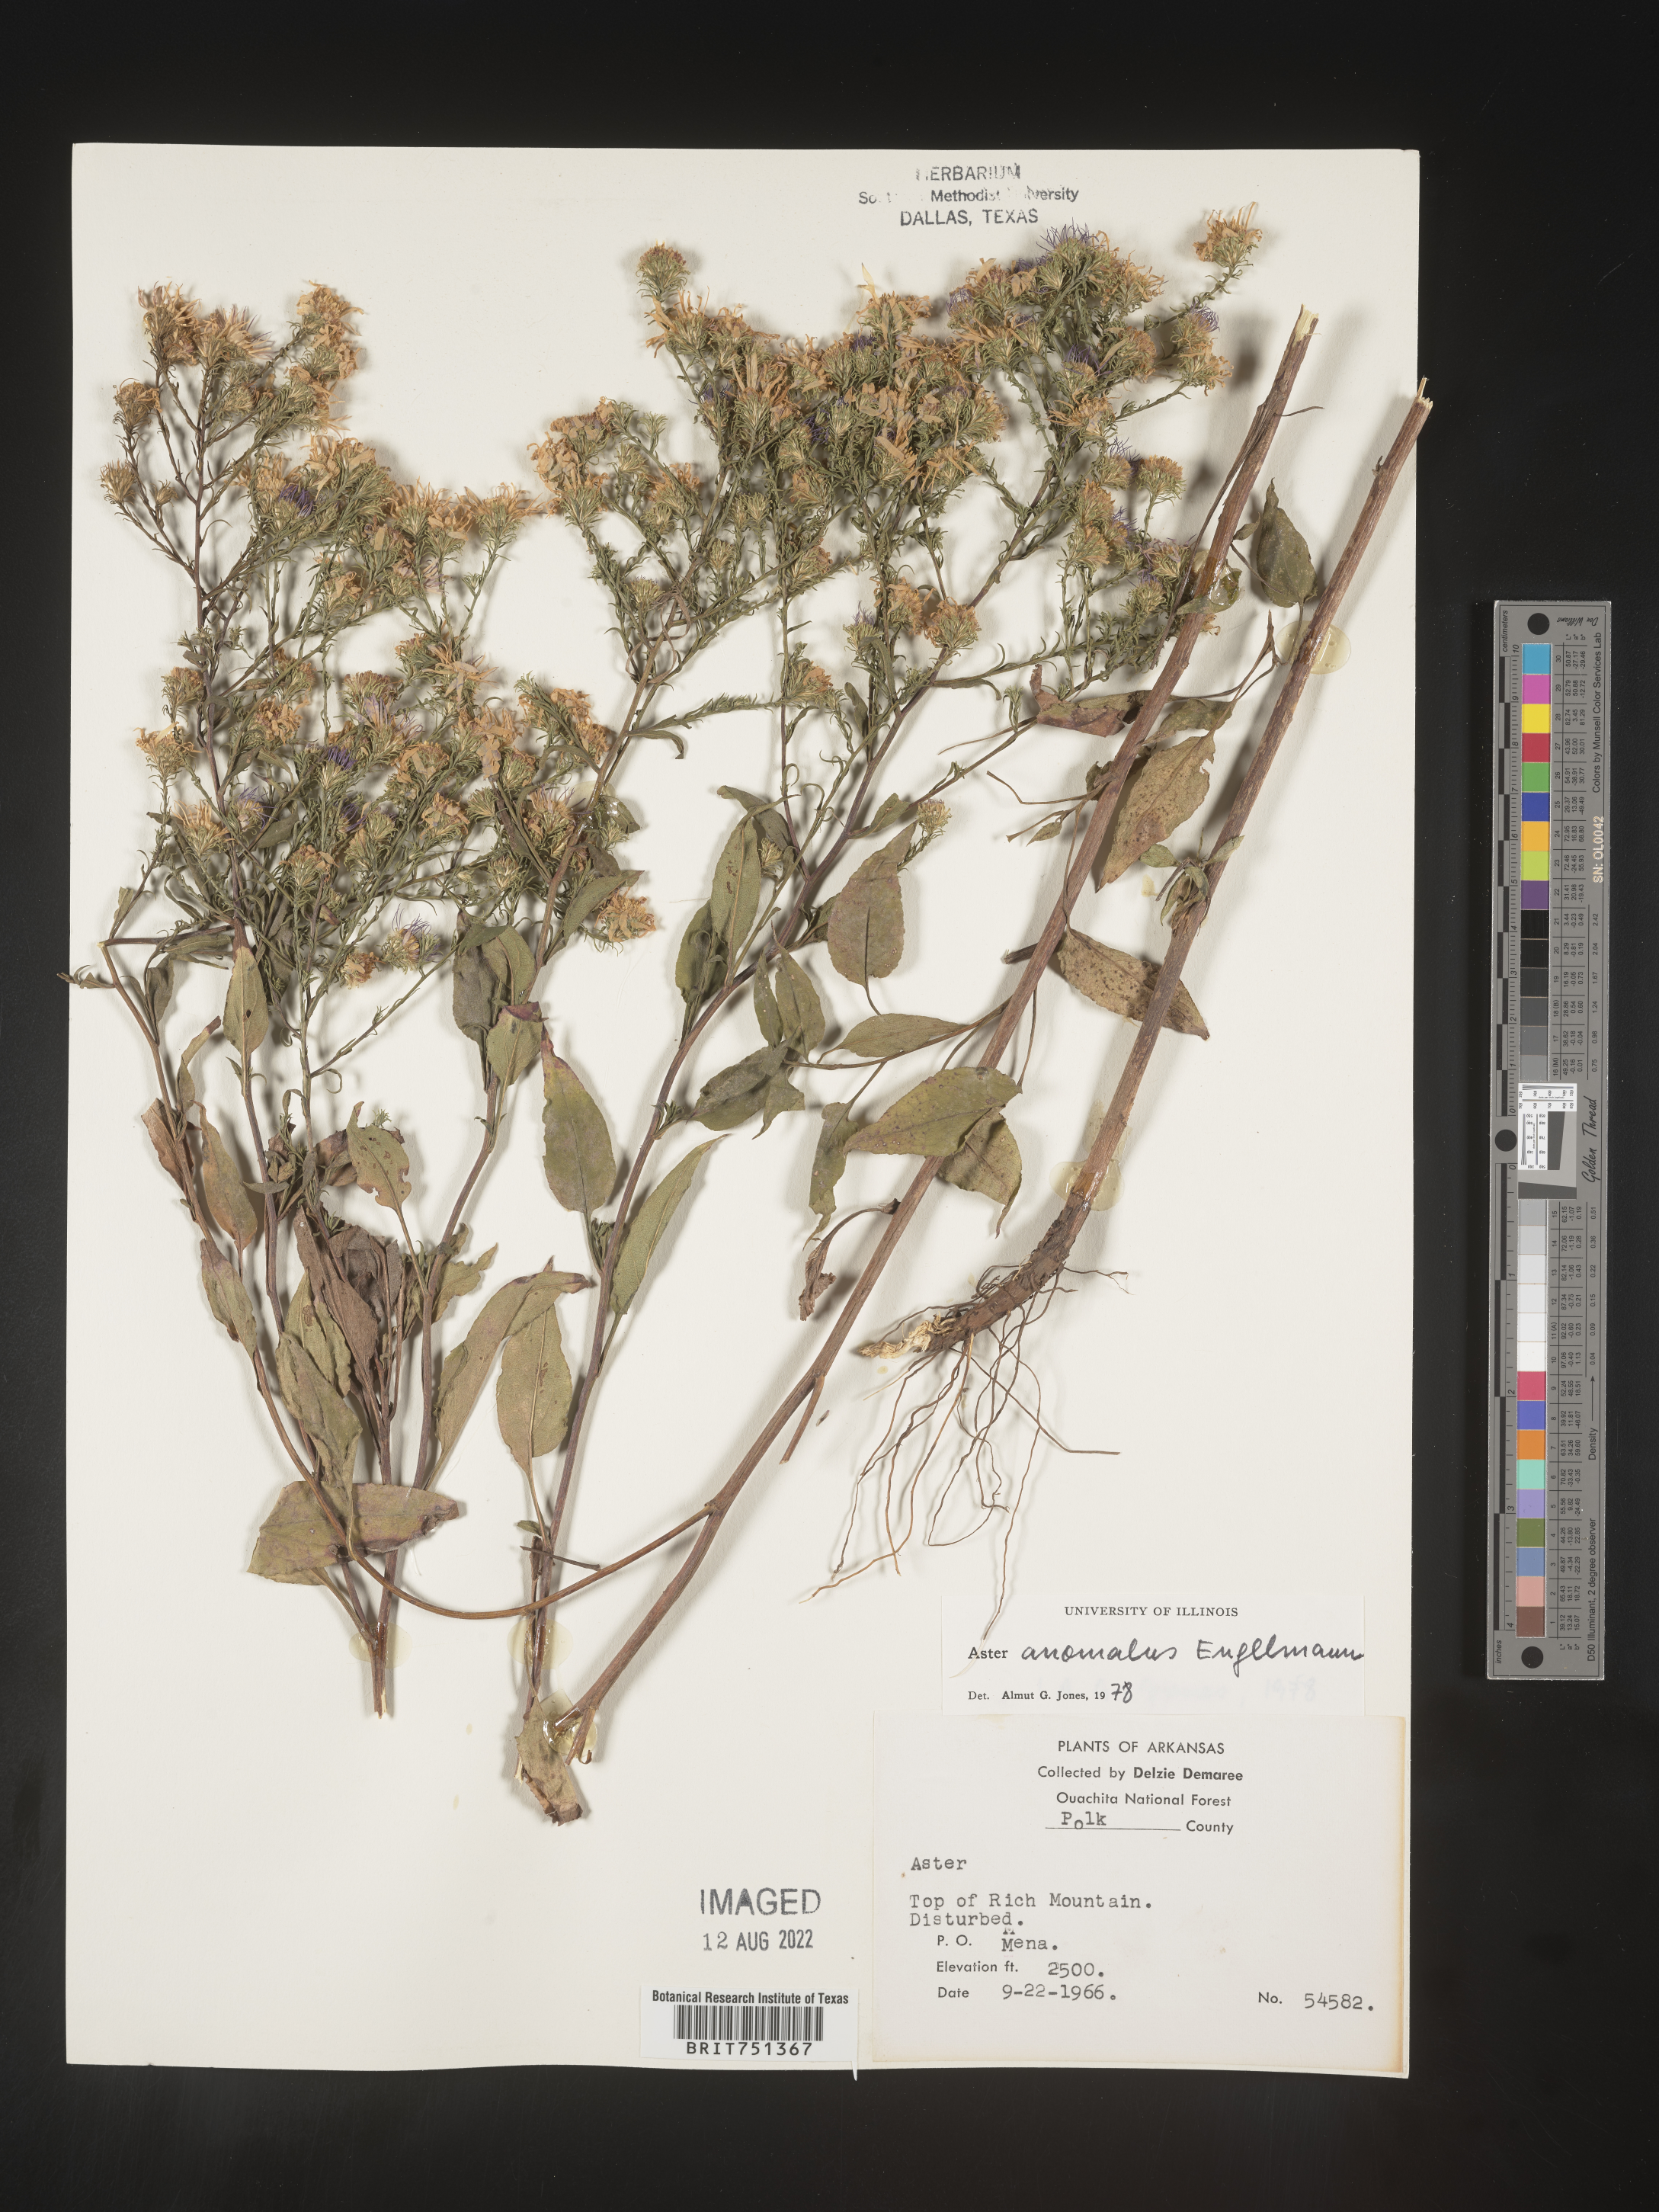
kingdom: Plantae
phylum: Tracheophyta
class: Magnoliopsida
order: Asterales
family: Asteraceae
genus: Symphyotrichum
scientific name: Symphyotrichum anomalum
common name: Many-ray aster
